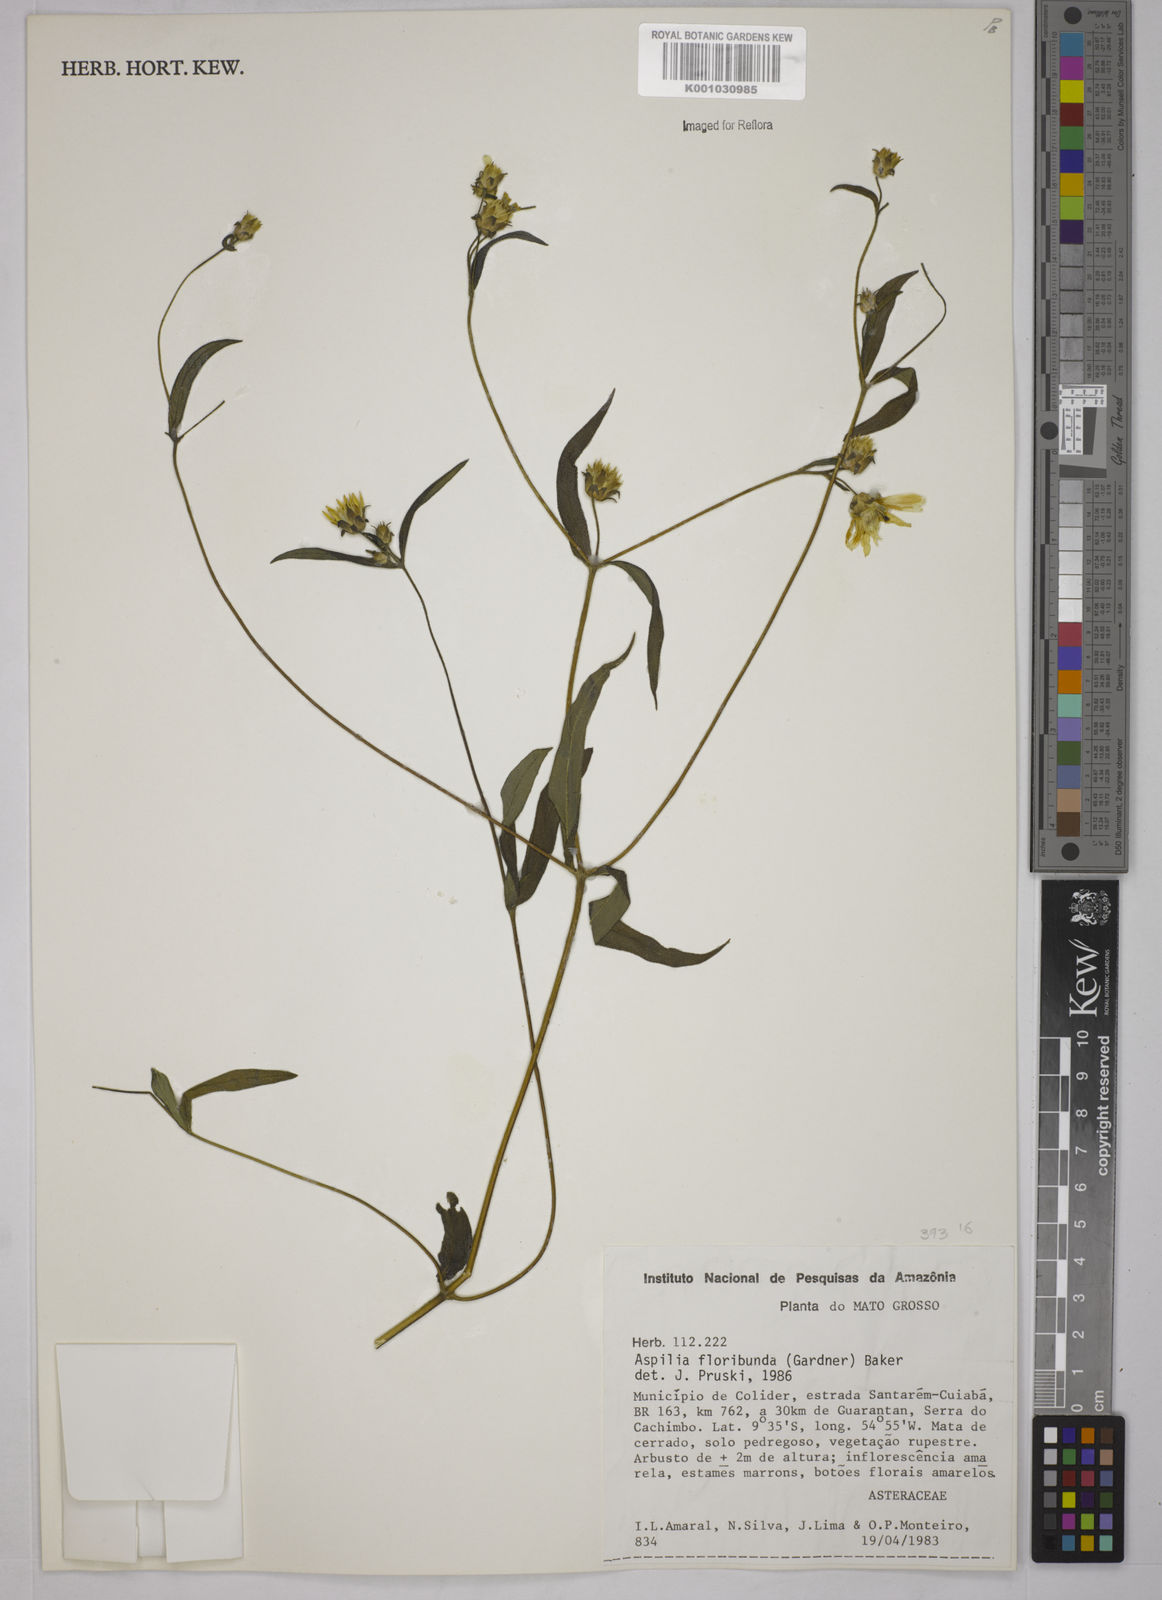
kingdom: Plantae
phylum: Tracheophyta
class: Magnoliopsida
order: Asterales
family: Asteraceae
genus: Wedelia
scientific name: Wedelia floribunda
